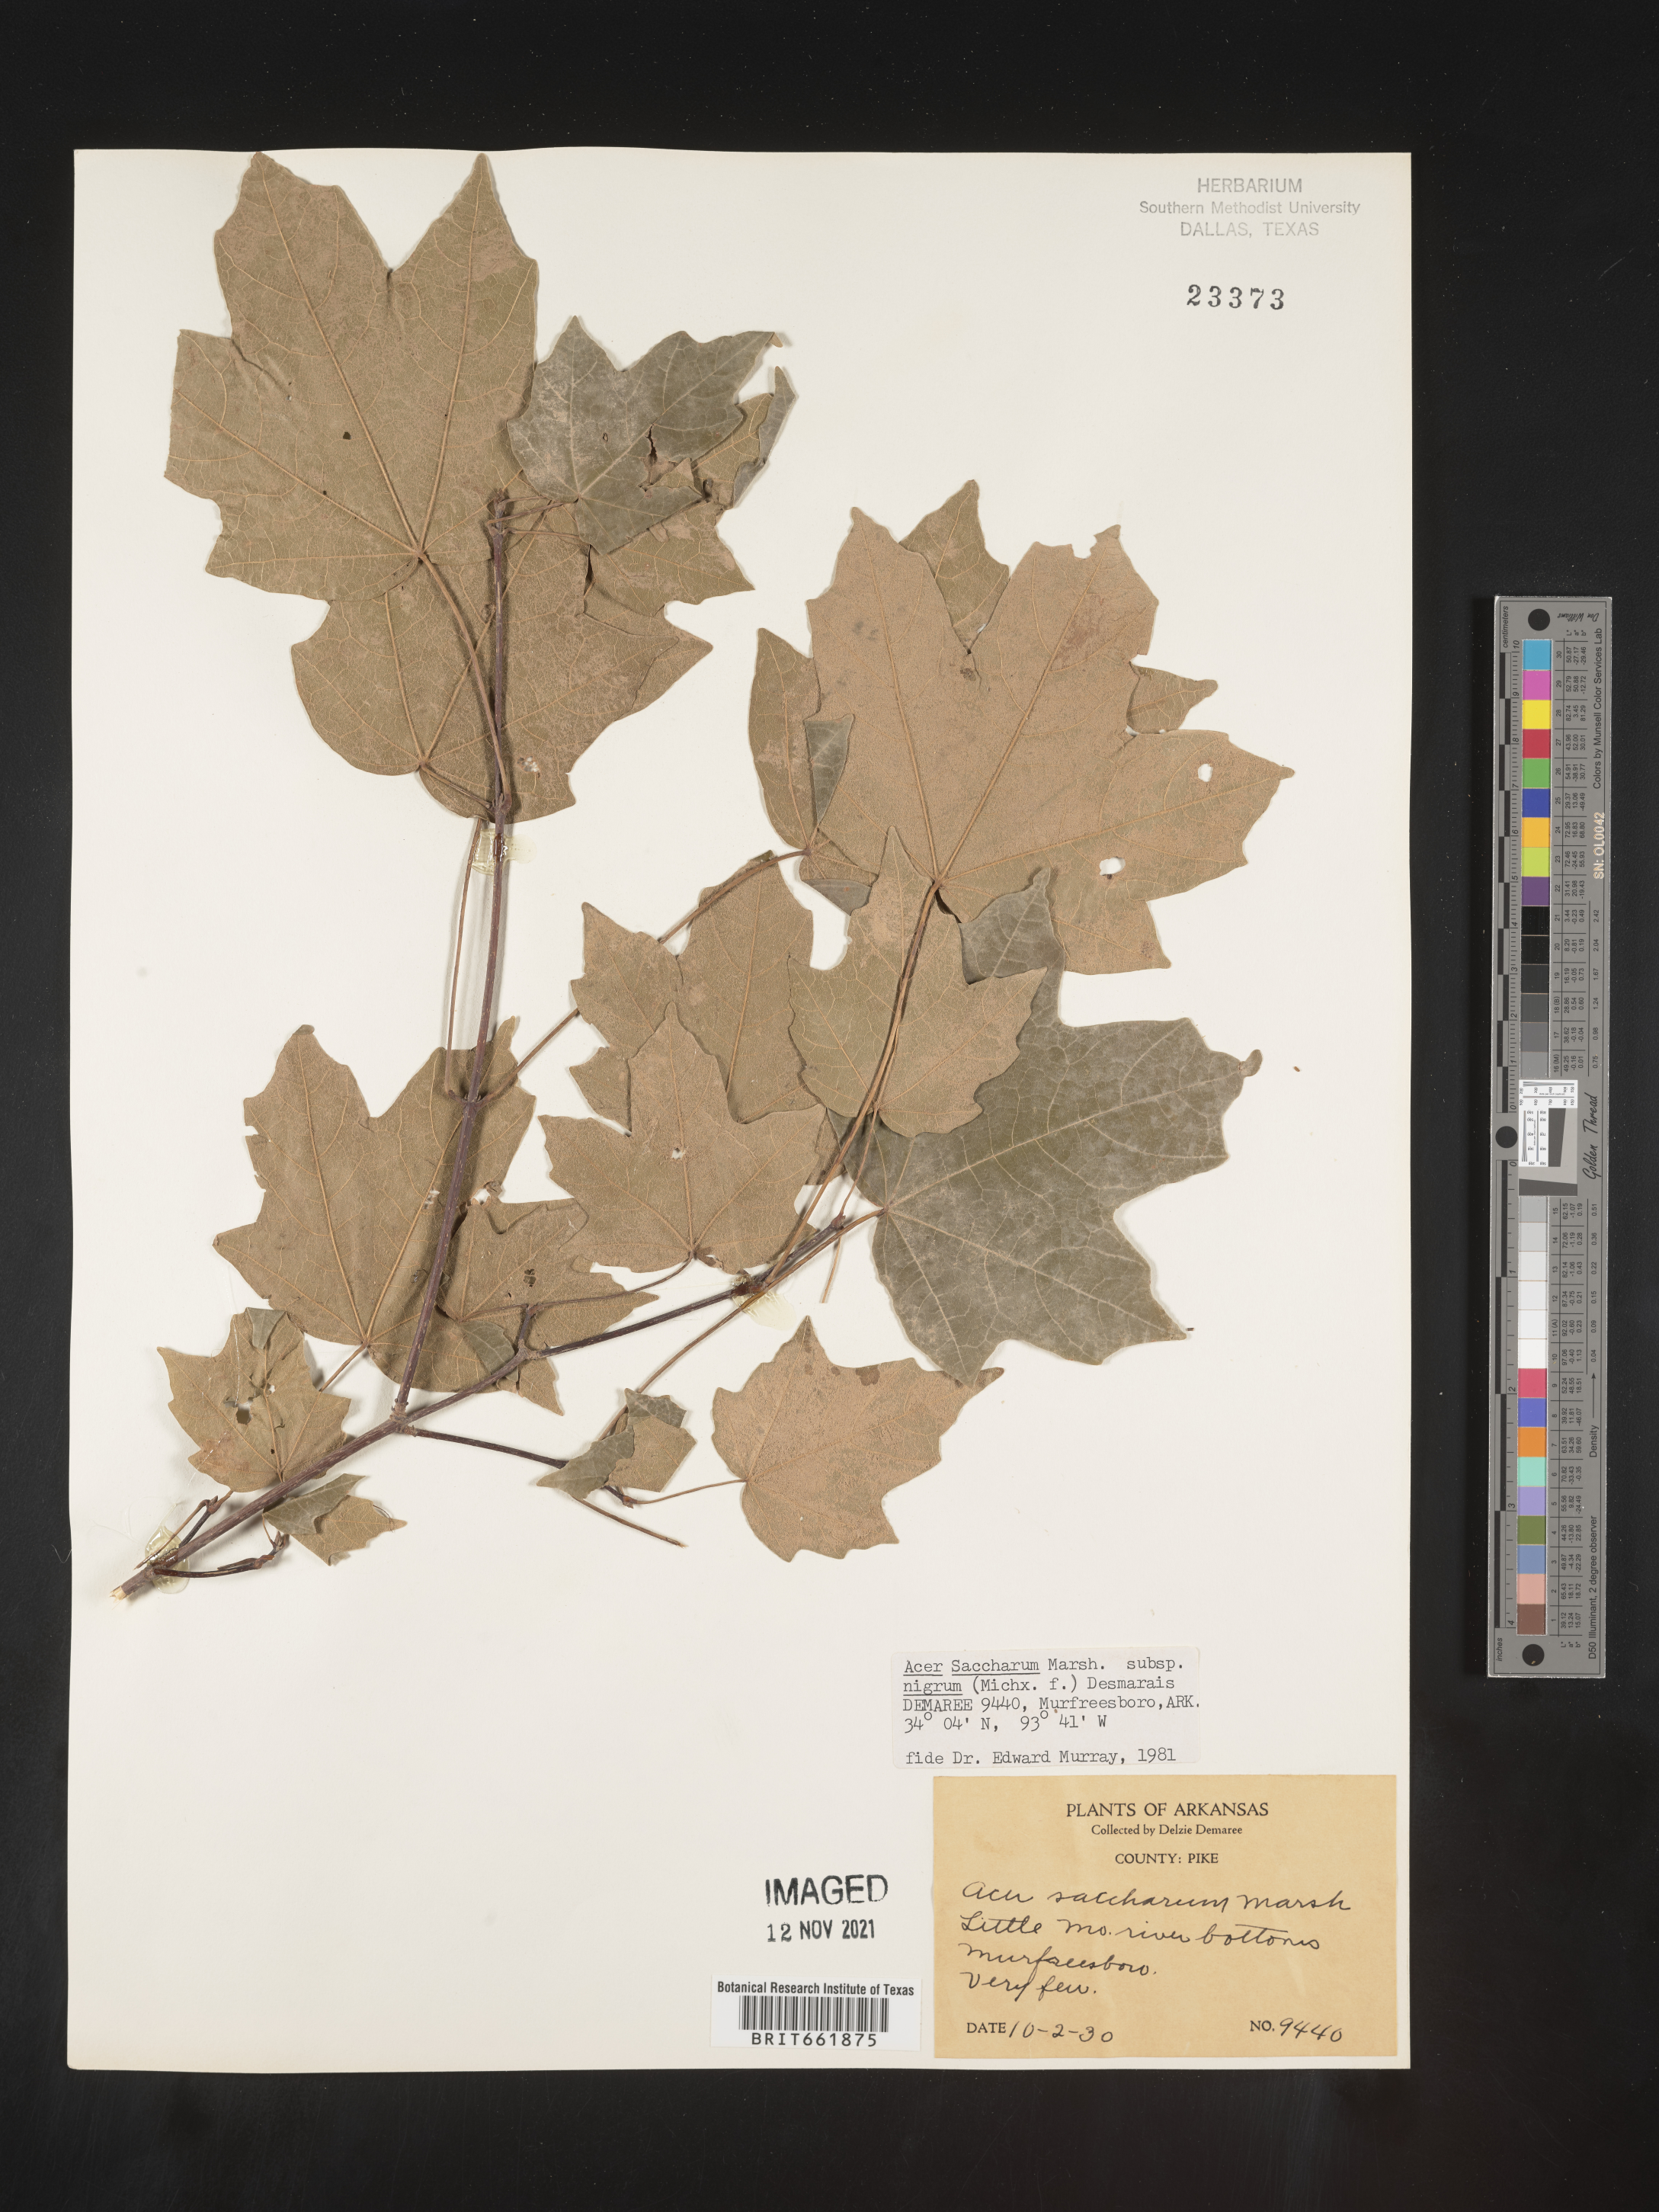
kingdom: Plantae
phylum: Tracheophyta
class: Magnoliopsida
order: Sapindales
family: Sapindaceae
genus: Acer
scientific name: Acer nigrum
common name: Black maple
